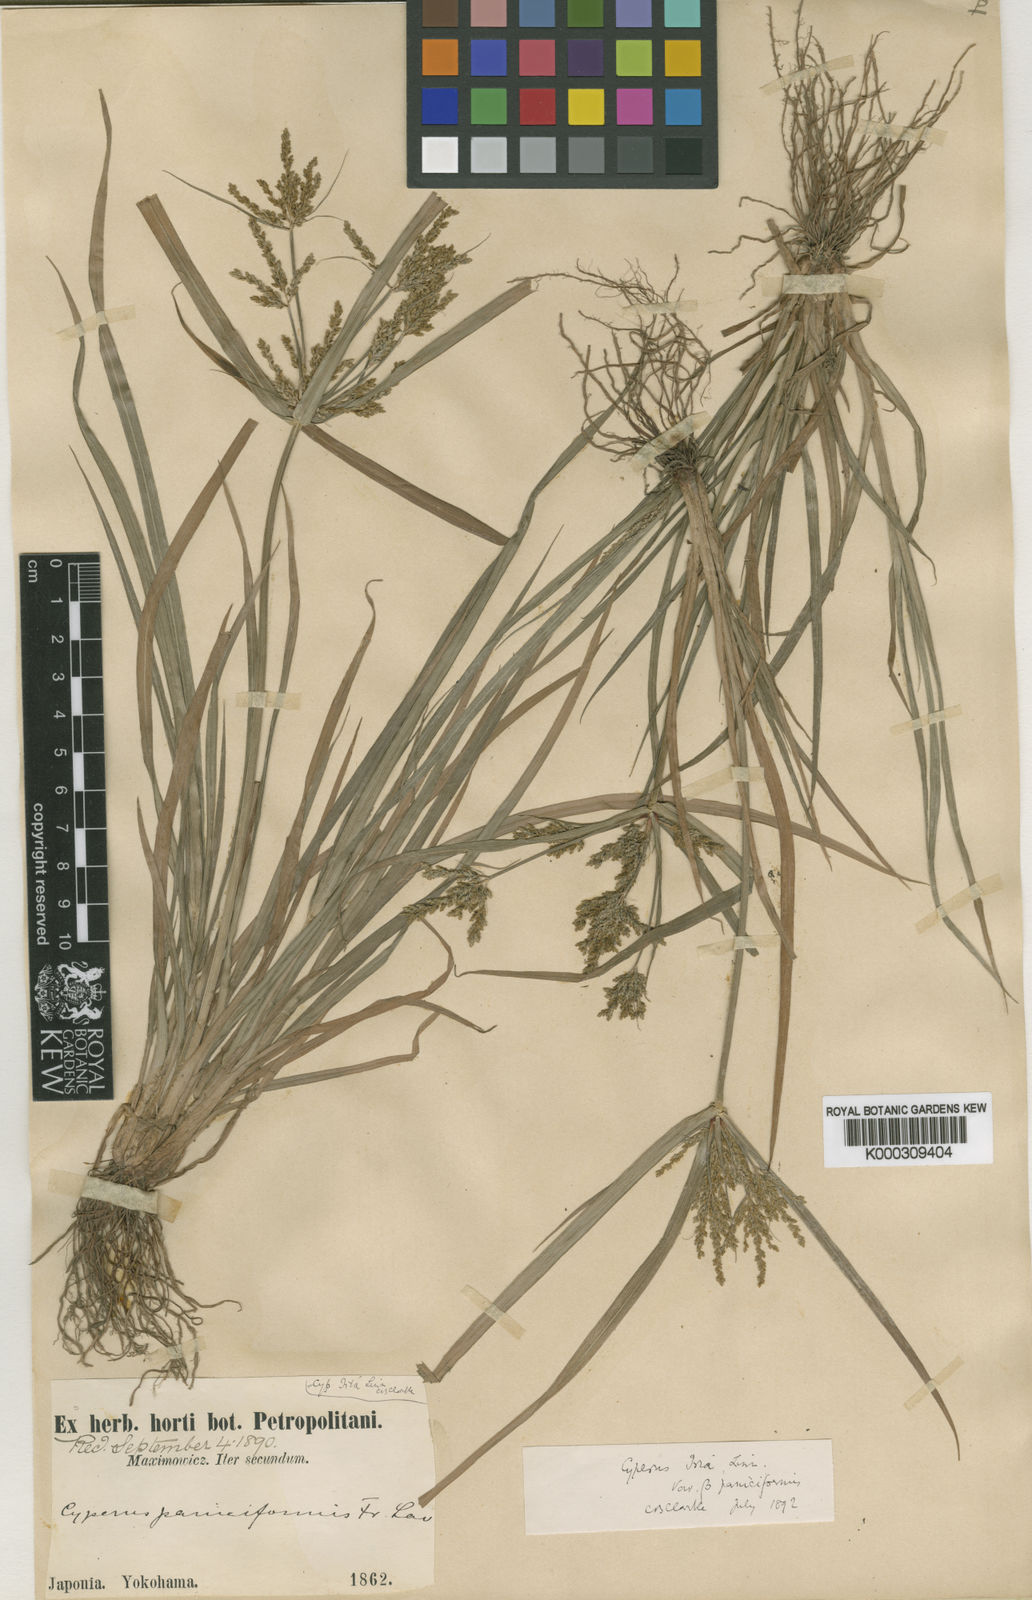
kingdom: Plantae
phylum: Tracheophyta
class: Liliopsida
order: Poales
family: Cyperaceae
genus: Cyperus
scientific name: Cyperus iria
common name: Ricefield flatsedge
